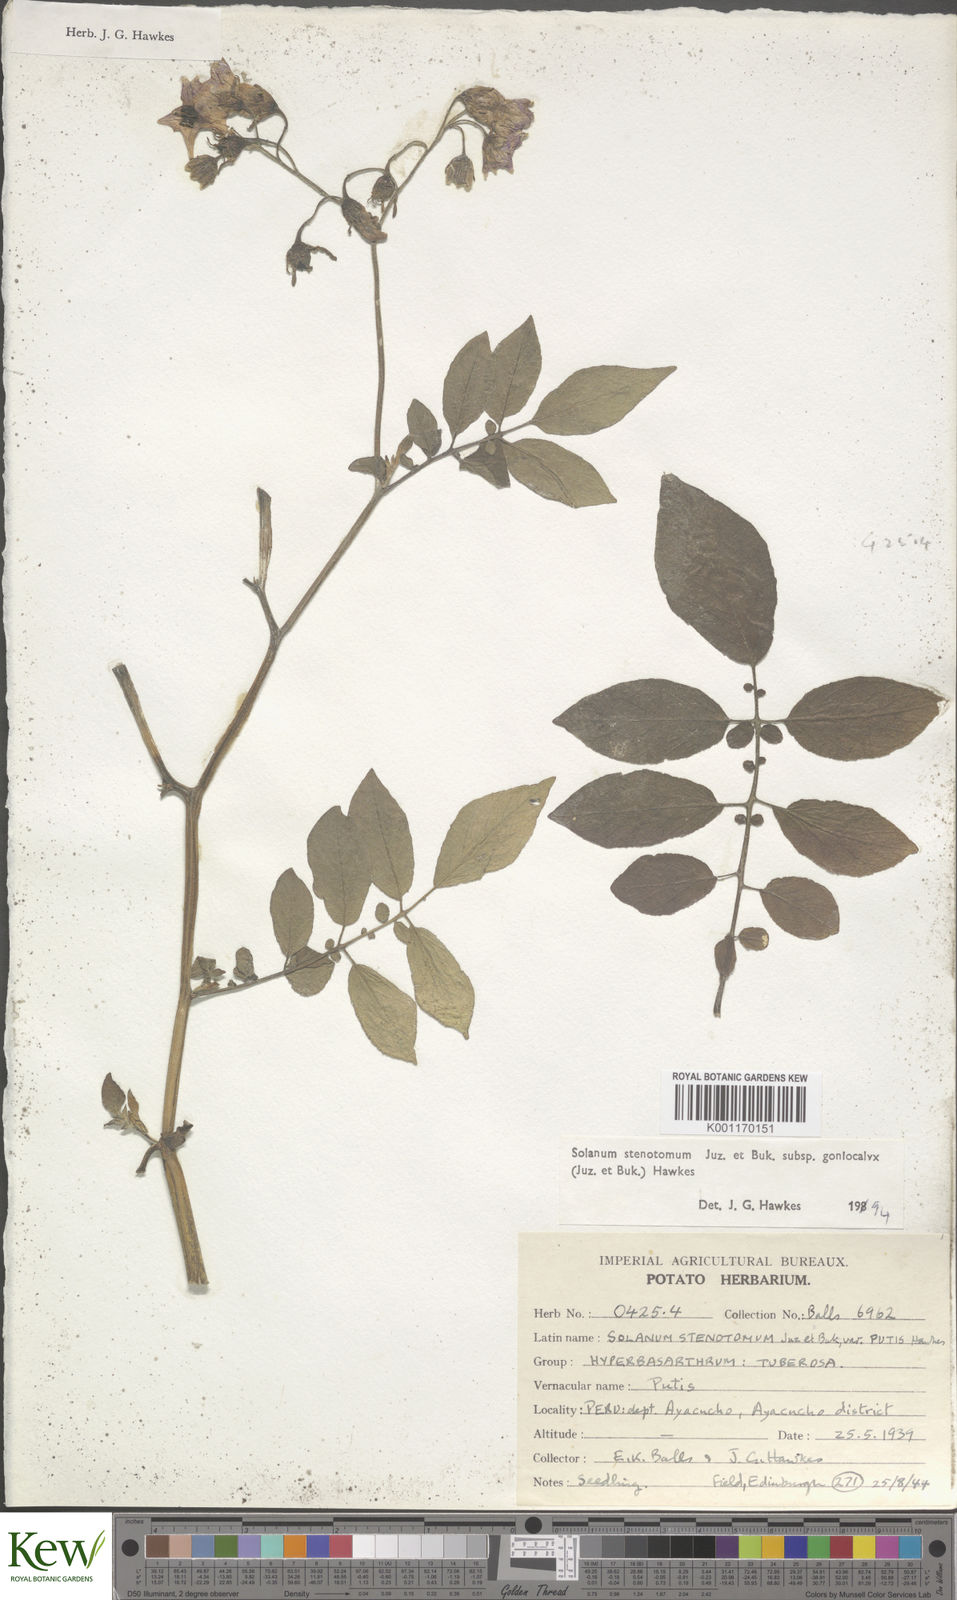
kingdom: Plantae
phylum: Tracheophyta
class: Magnoliopsida
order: Solanales
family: Solanaceae
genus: Solanum
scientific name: Solanum tuberosum
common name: Potato
